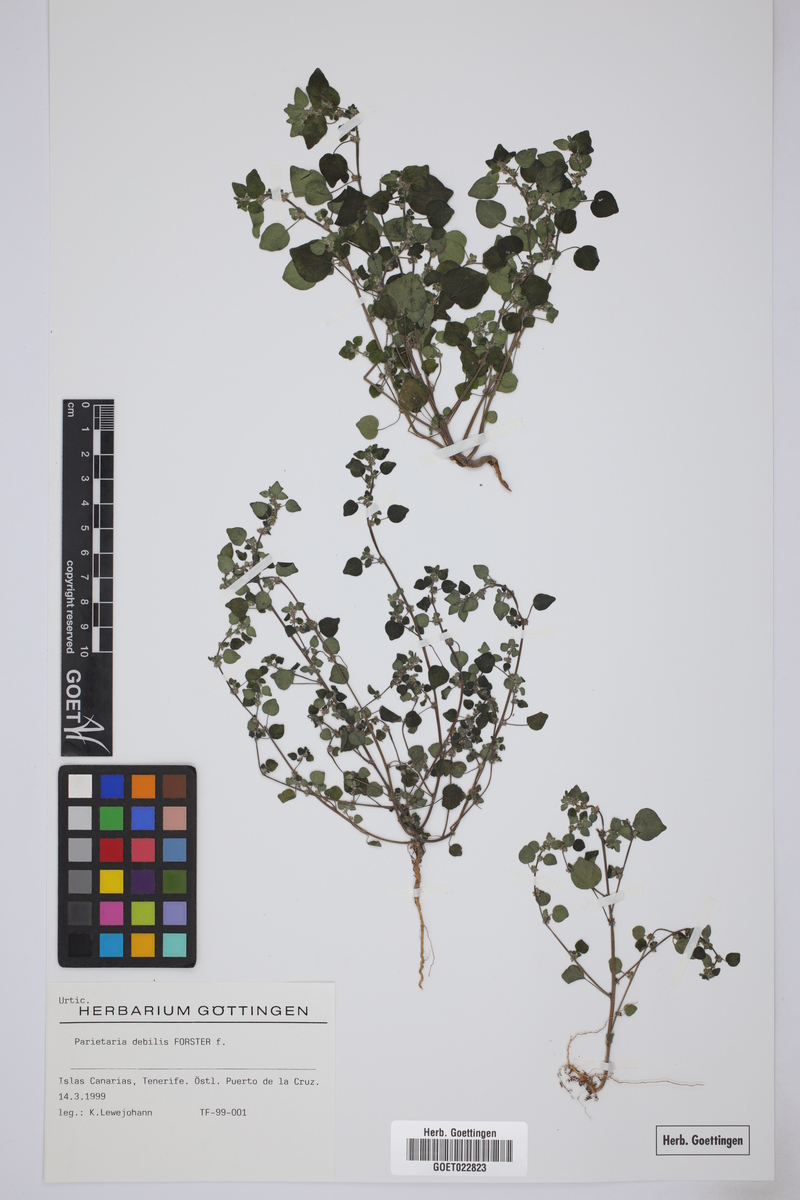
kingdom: Plantae
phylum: Tracheophyta
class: Magnoliopsida
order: Rosales
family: Urticaceae
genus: Parietaria
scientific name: Parietaria debilis
